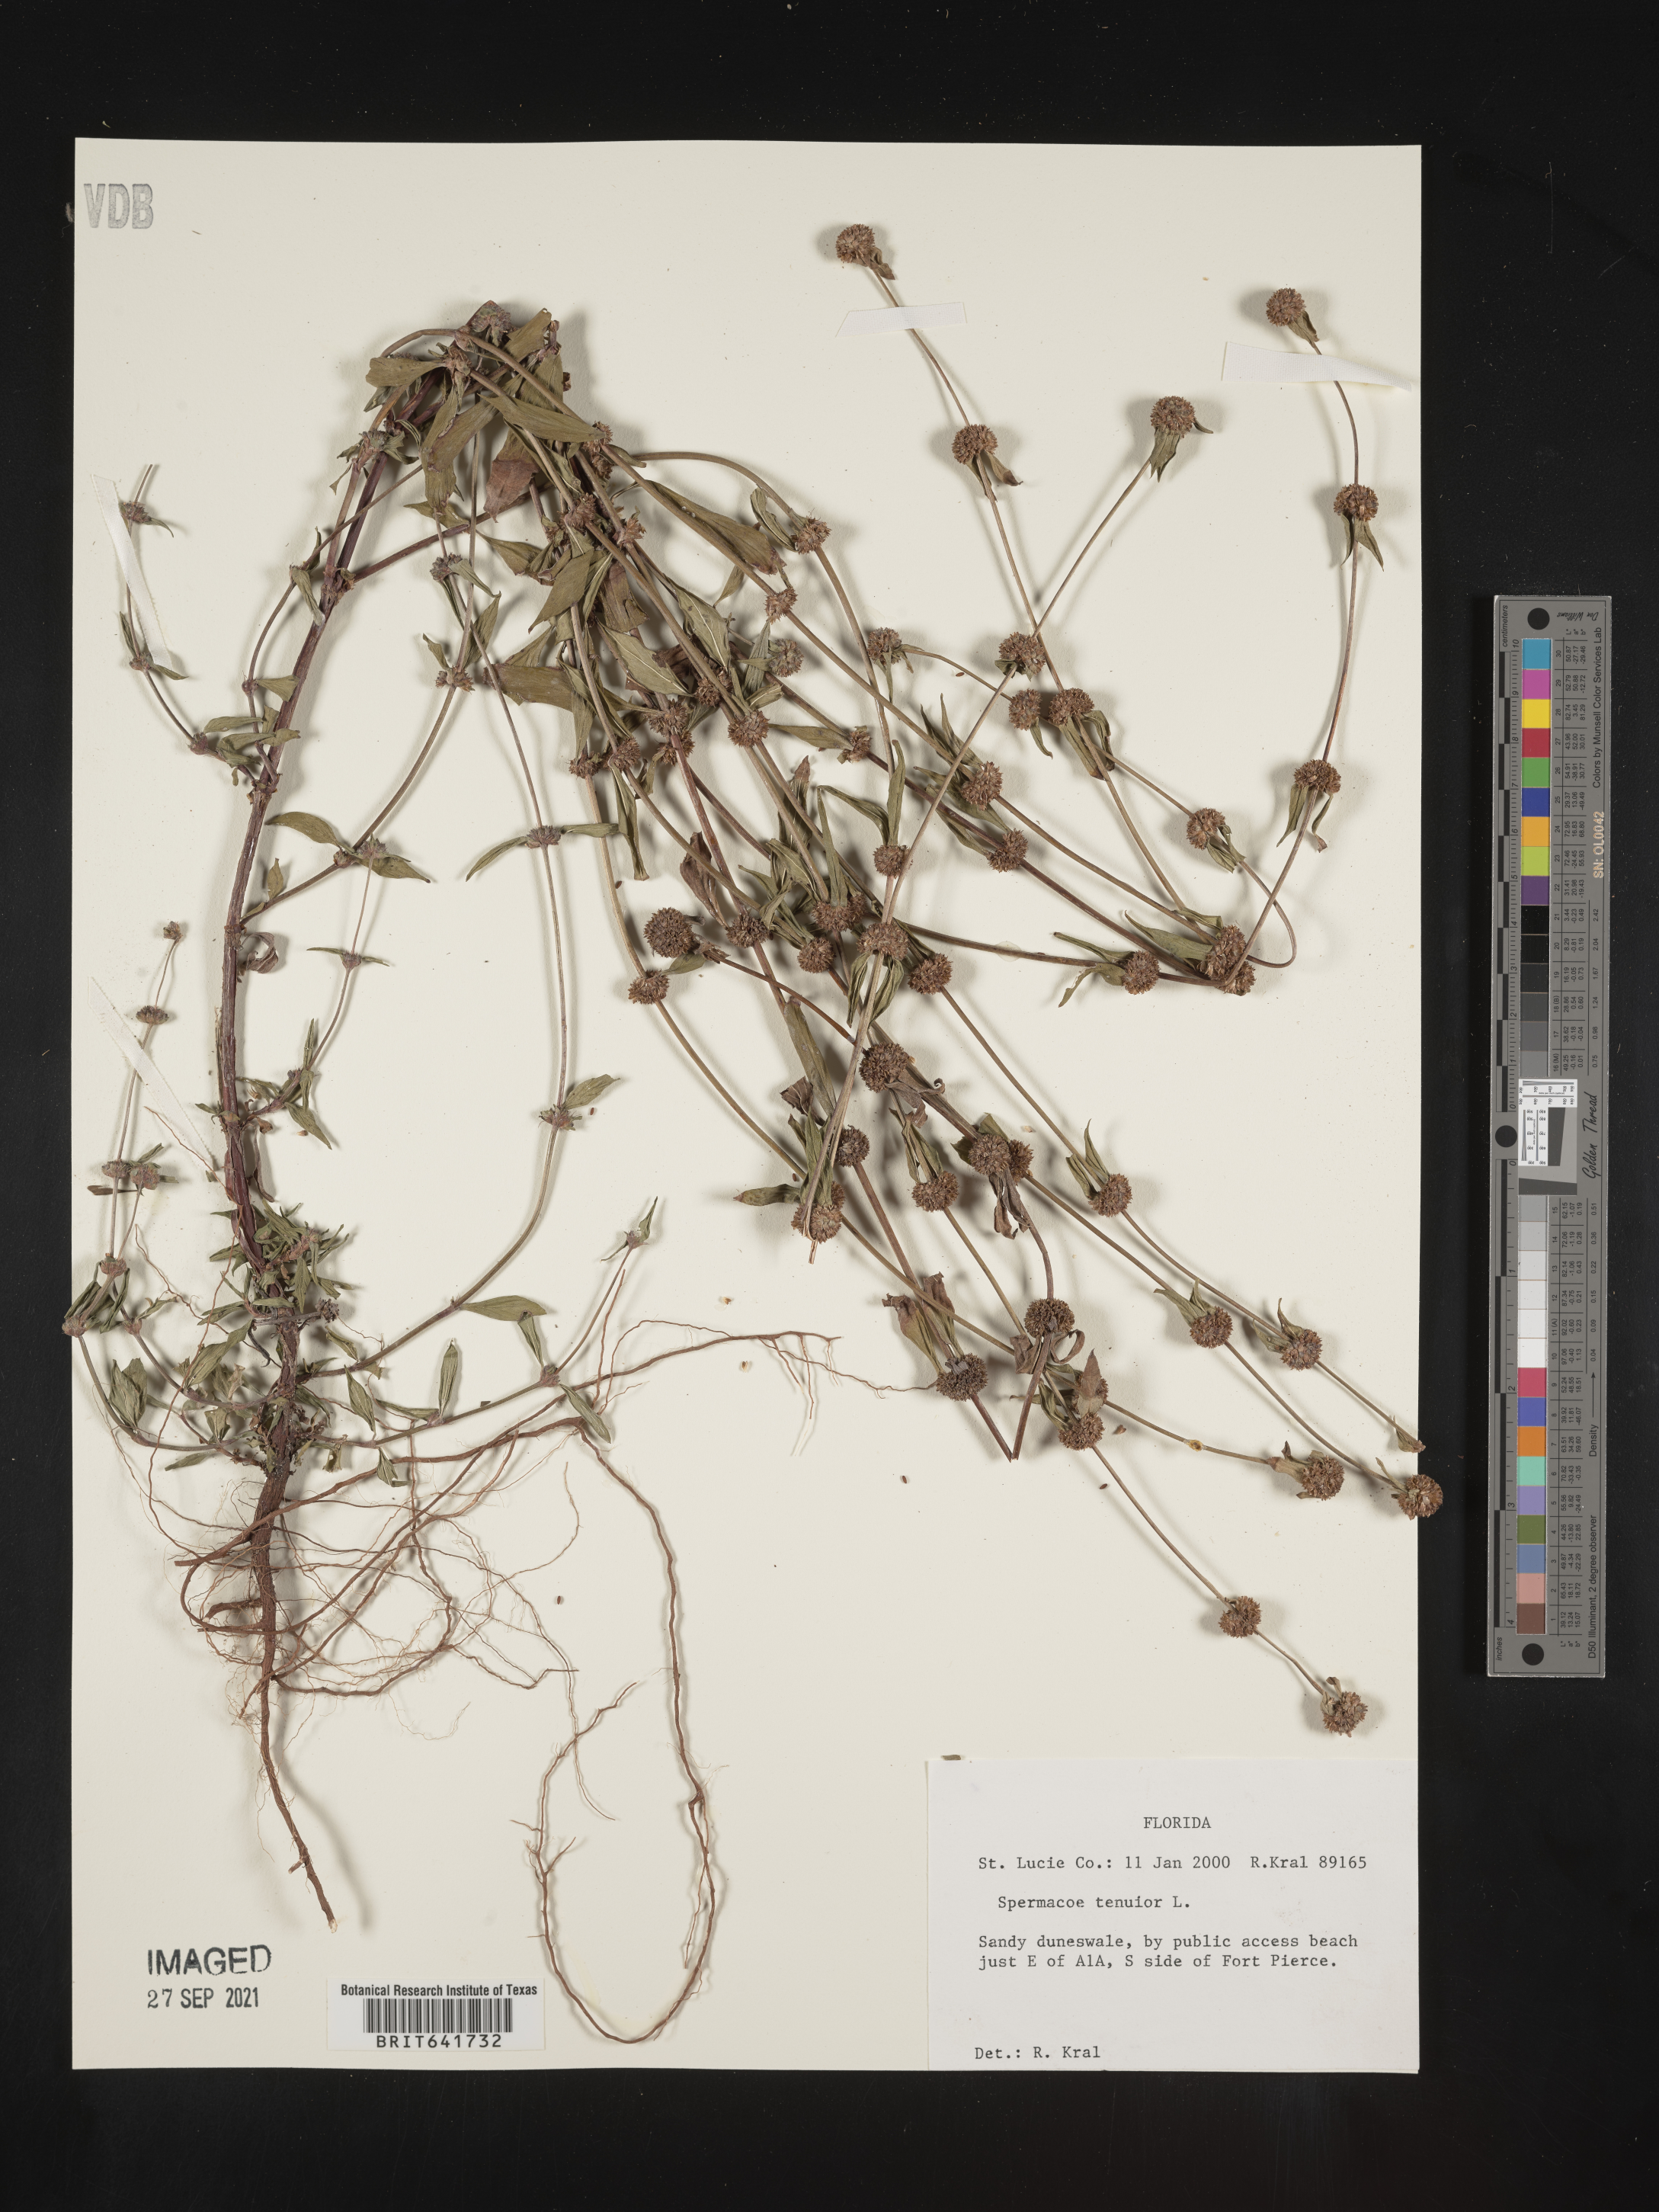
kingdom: Plantae
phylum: Tracheophyta
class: Magnoliopsida
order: Gentianales
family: Rubiaceae
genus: Spermacoce
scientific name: Spermacoce tenuior
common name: River false buttonweed
